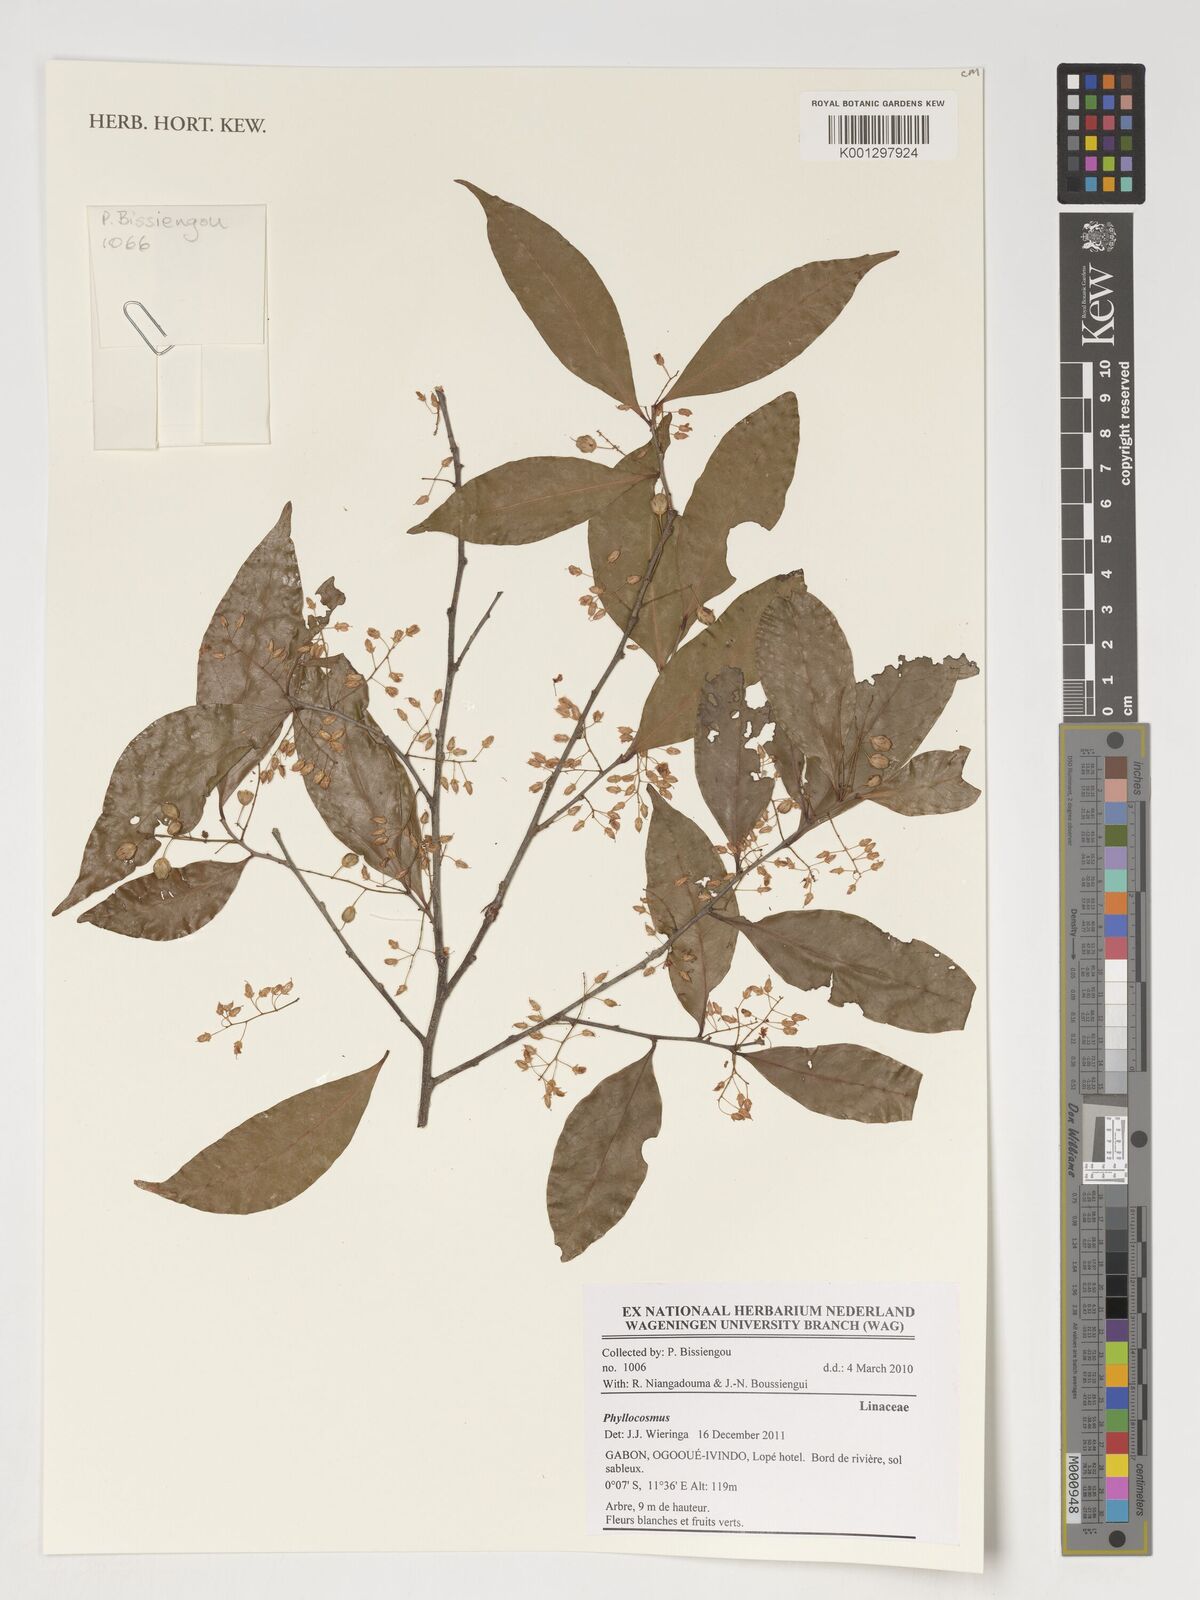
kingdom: Plantae
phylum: Tracheophyta
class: Magnoliopsida
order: Malpighiales
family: Ixonanthaceae
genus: Phyllocosmus
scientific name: Phyllocosmus
